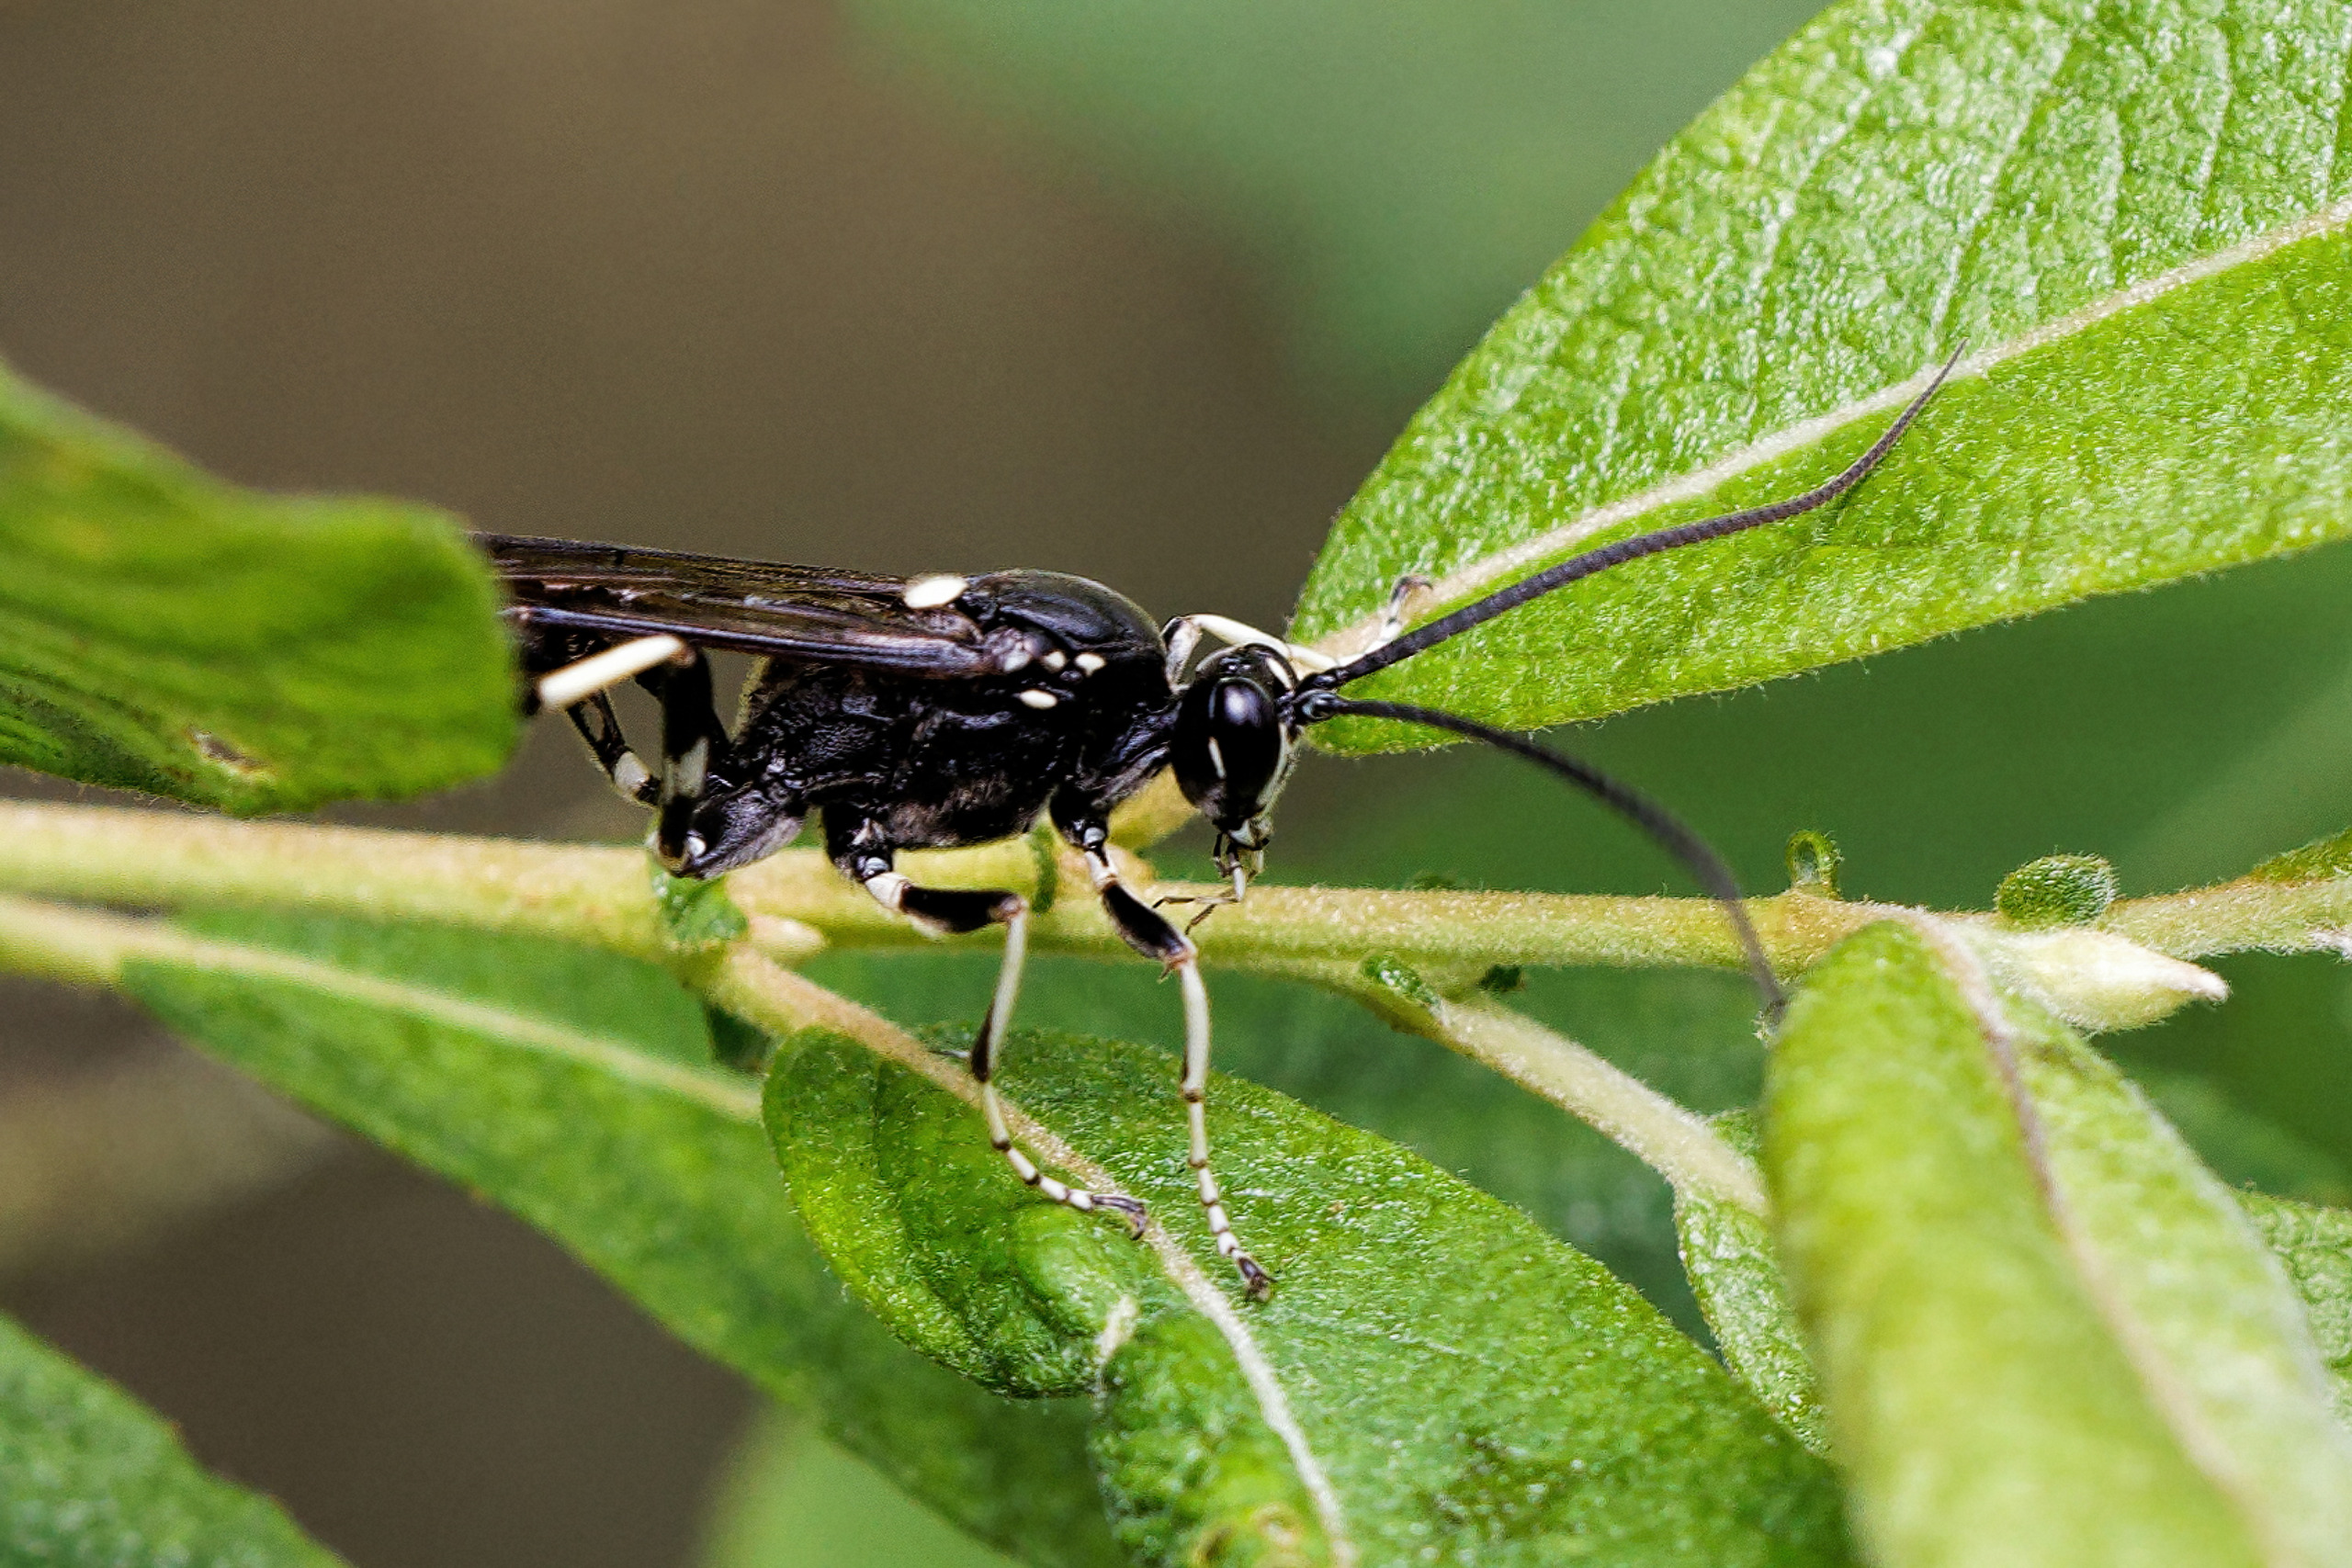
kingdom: Animalia
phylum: Arthropoda
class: Insecta
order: Hymenoptera
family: Ichneumonidae
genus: Amblyjoppa
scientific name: Amblyjoppa proteus
